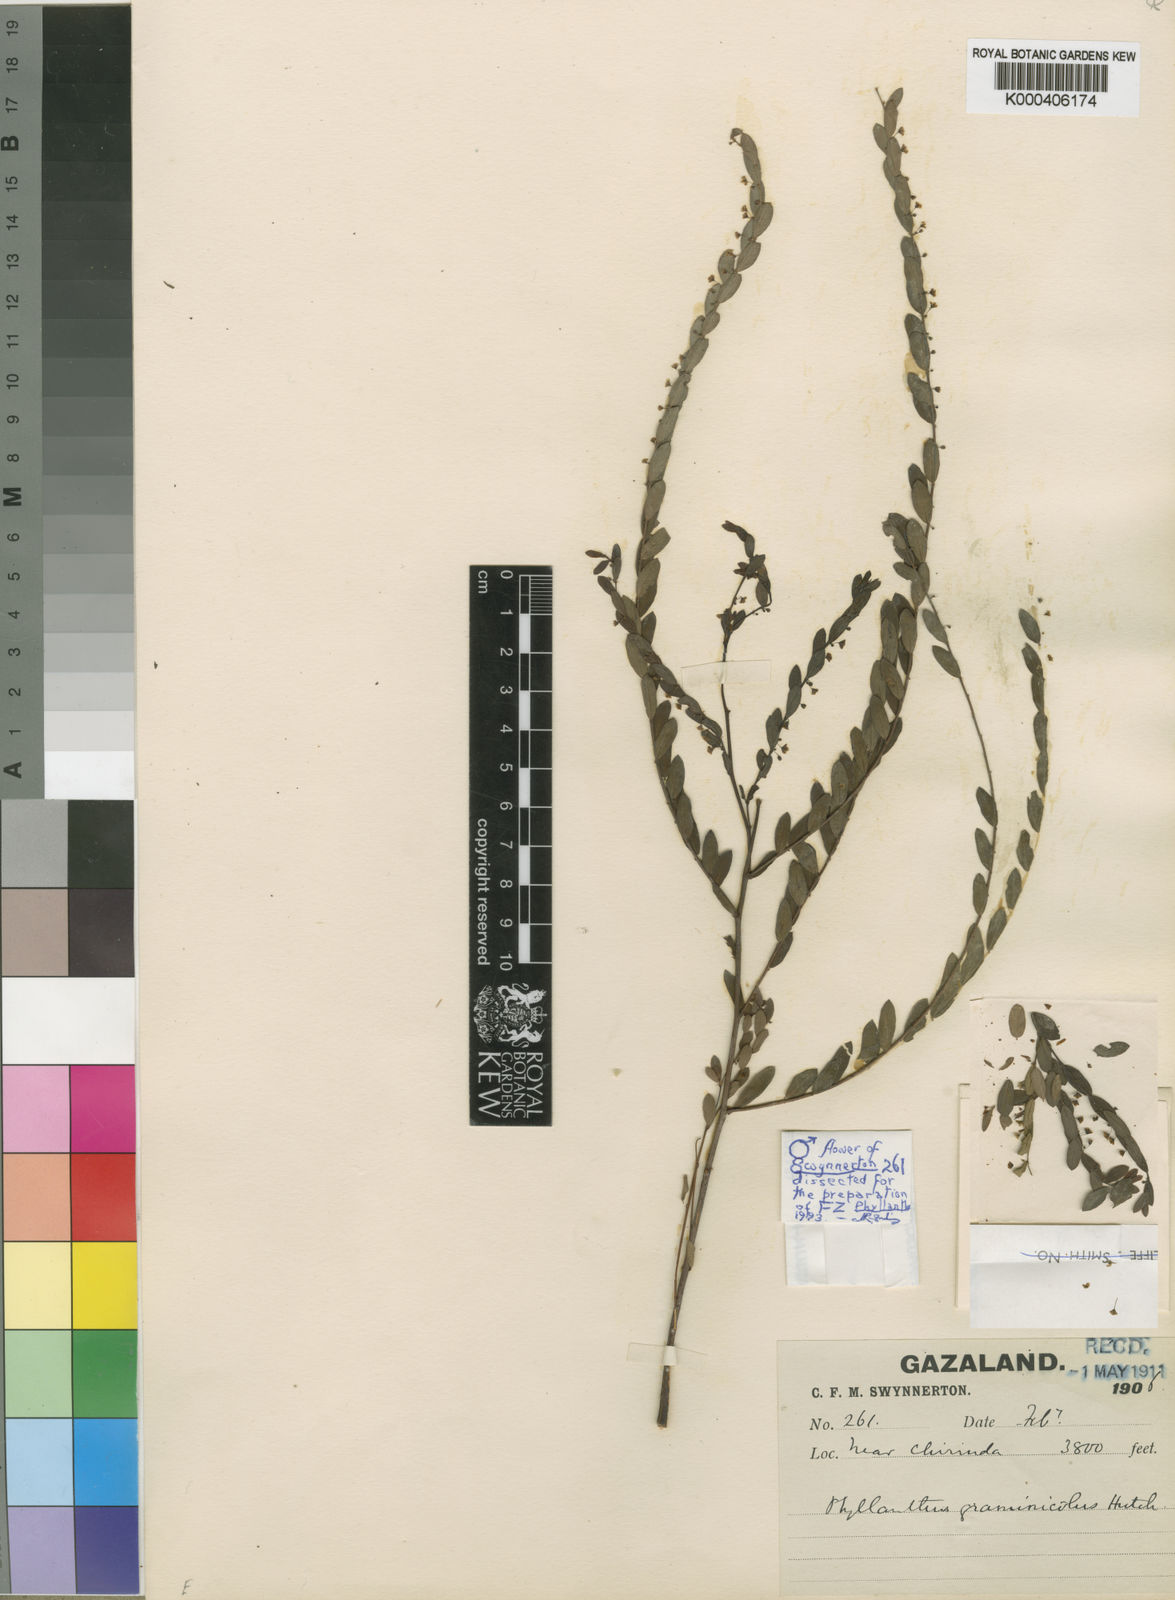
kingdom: Plantae
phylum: Tracheophyta
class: Magnoliopsida
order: Malpighiales
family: Phyllanthaceae
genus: Phyllanthus
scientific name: Phyllanthus graminicola
